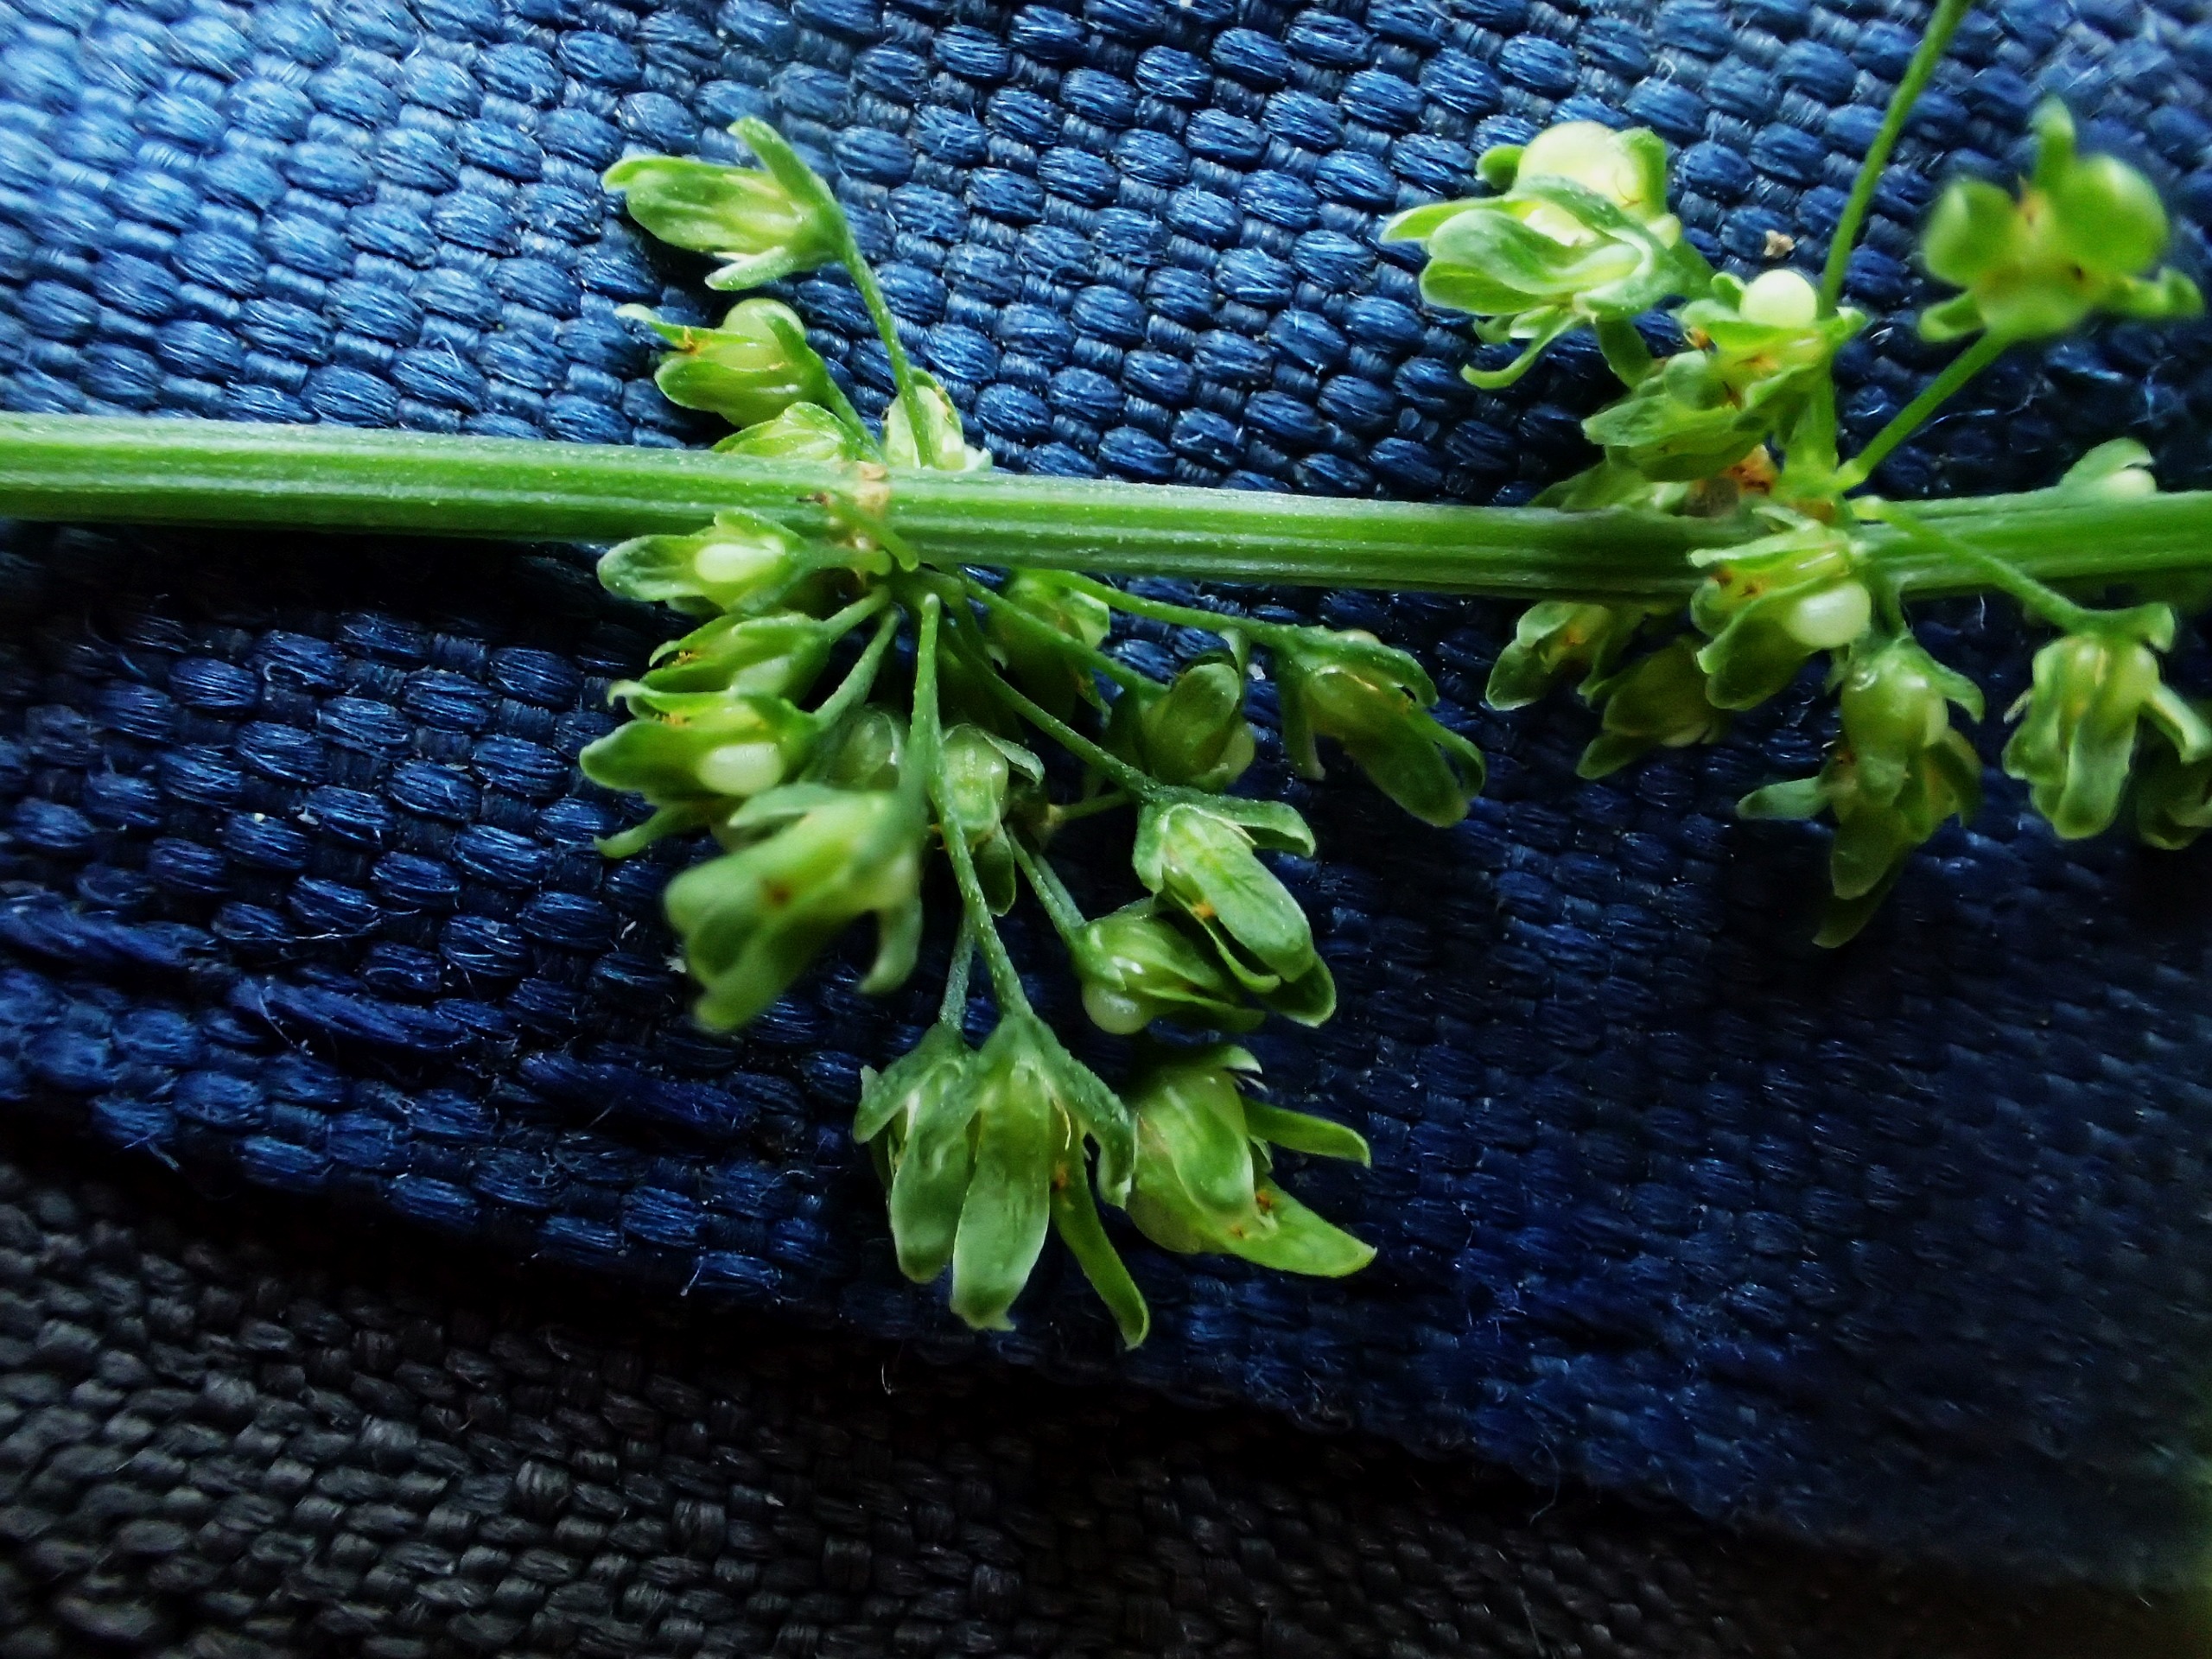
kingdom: Plantae
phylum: Tracheophyta
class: Magnoliopsida
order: Caryophyllales
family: Polygonaceae
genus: Rumex
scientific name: Rumex sanguineus
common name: Skov-skræppe
